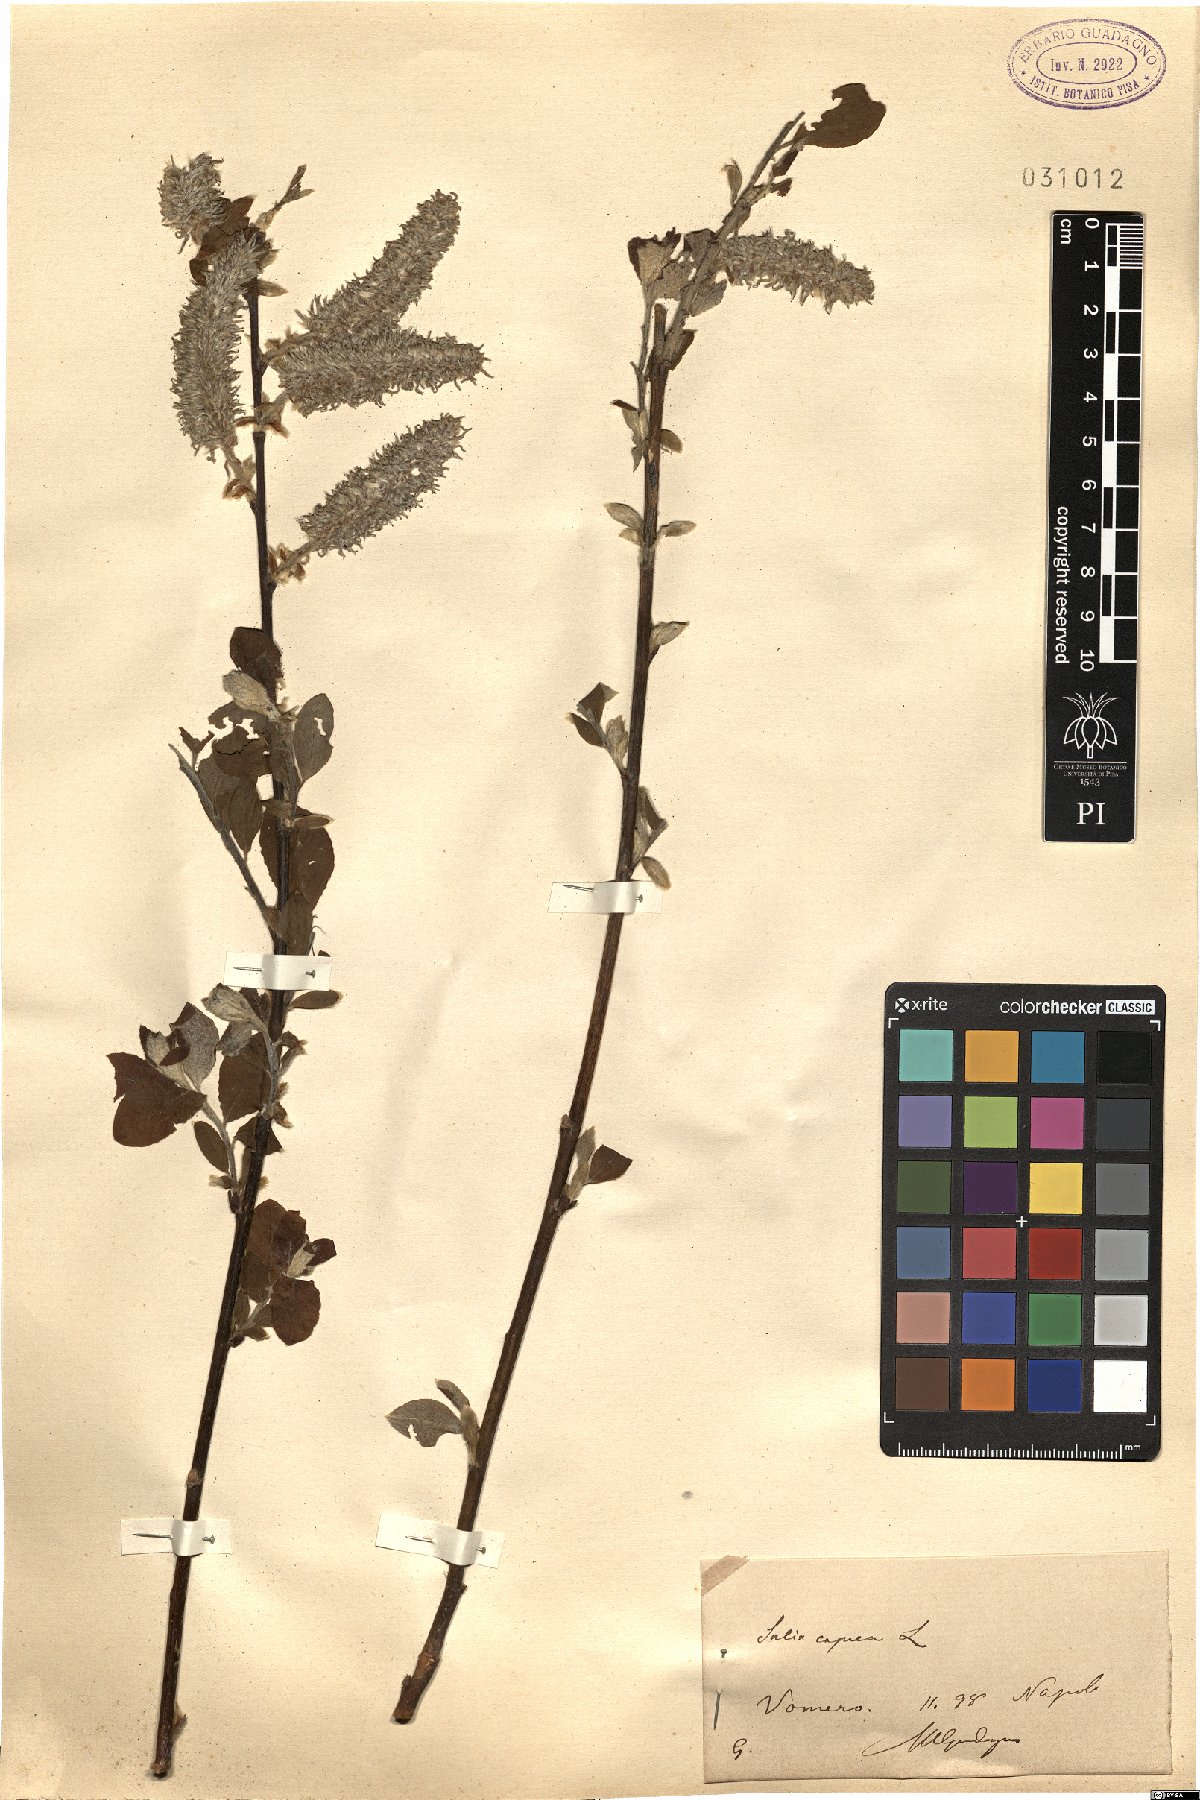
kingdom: Plantae
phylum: Tracheophyta
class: Magnoliopsida
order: Malpighiales
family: Salicaceae
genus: Salix
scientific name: Salix caprea
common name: Goat willow
